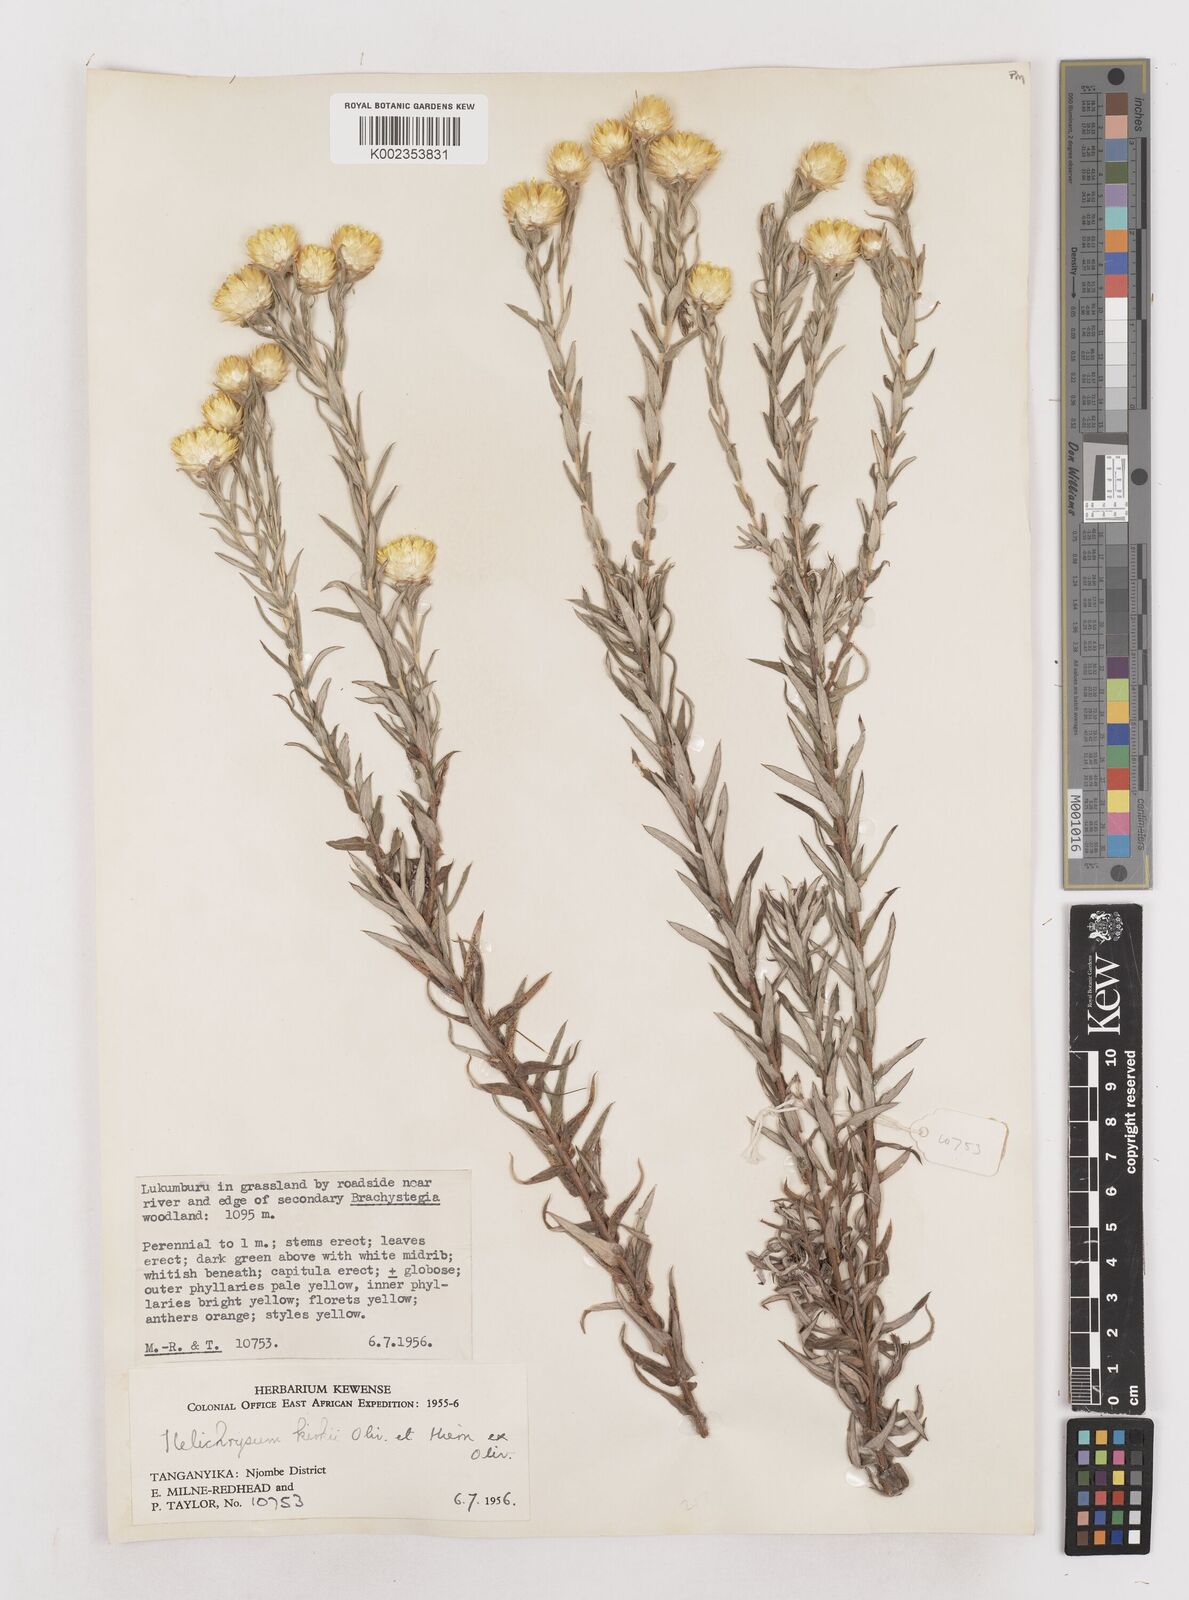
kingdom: Plantae
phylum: Tracheophyta
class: Magnoliopsida
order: Asterales
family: Asteraceae
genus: Helichrysum
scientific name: Helichrysum kirkii
